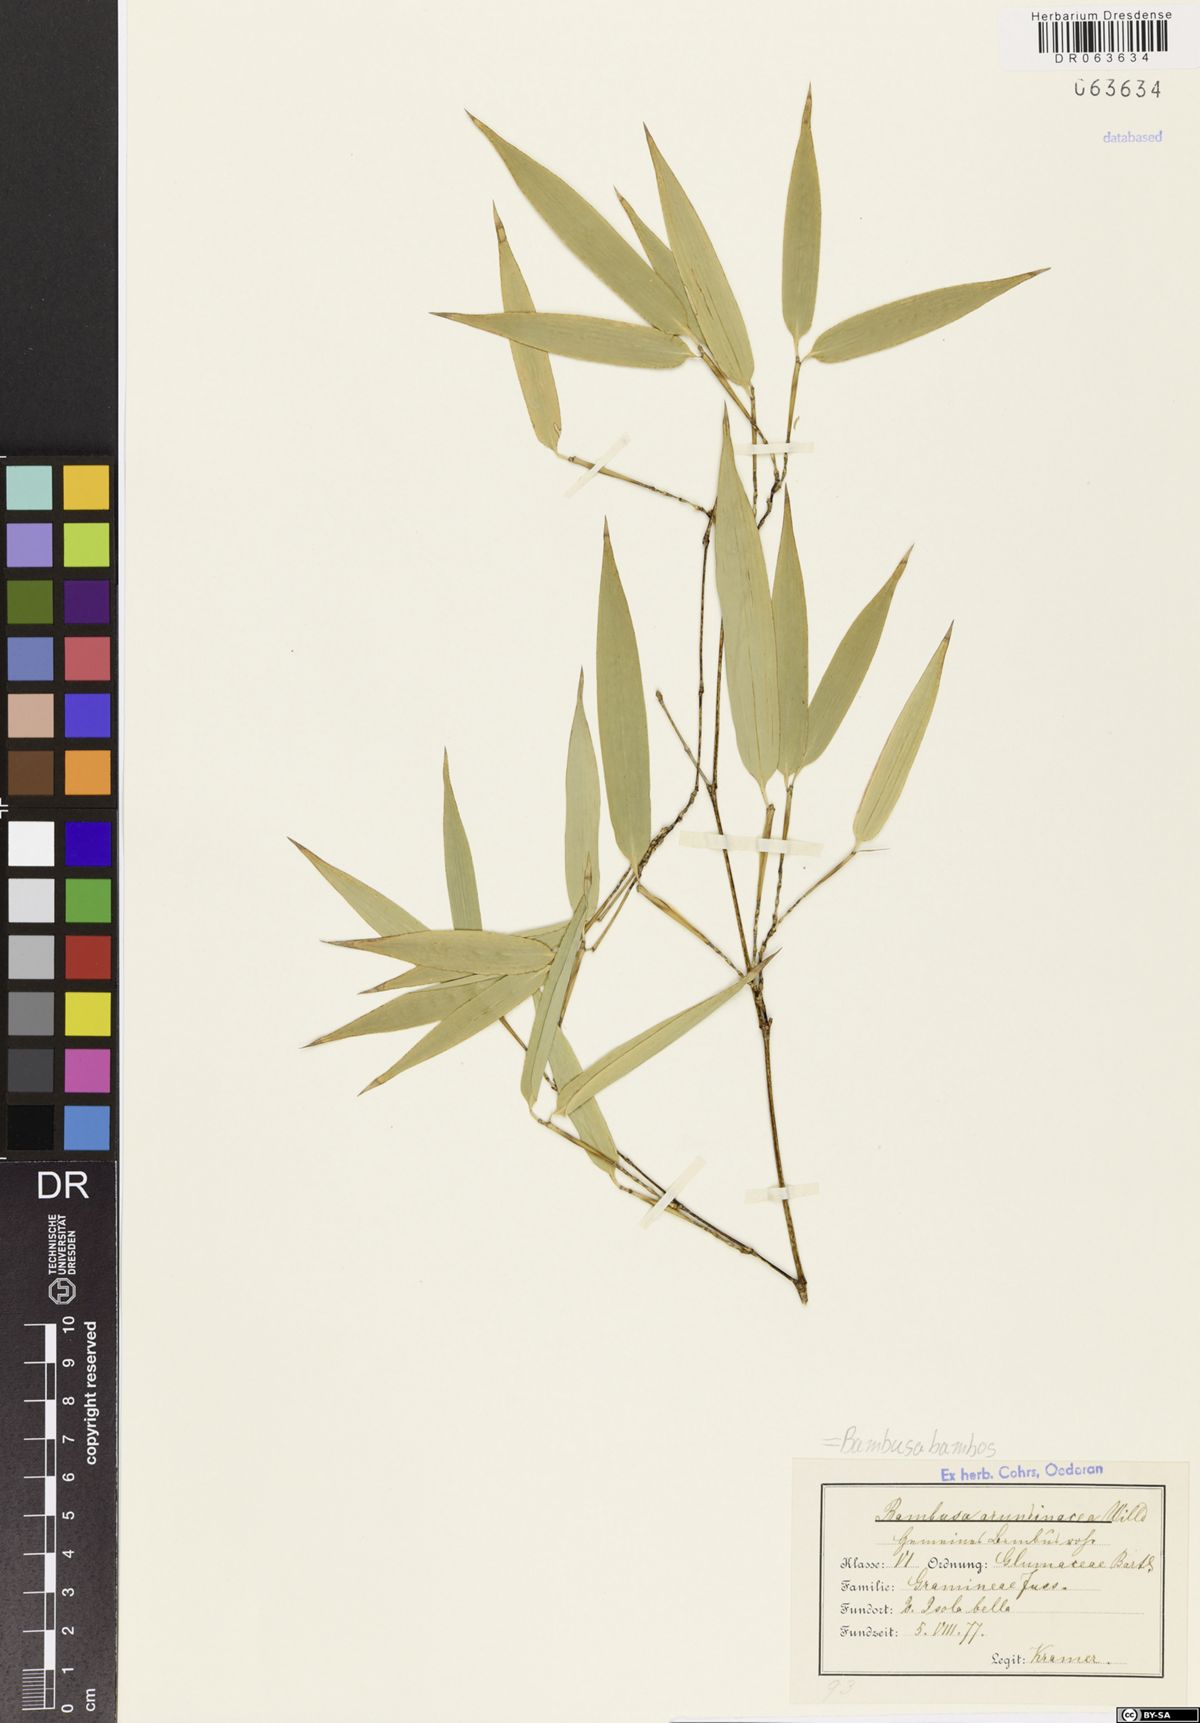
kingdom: Plantae
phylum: Tracheophyta
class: Liliopsida
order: Poales
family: Poaceae
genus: Bambusa
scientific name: Bambusa bambos
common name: Indian thorny bamboo
